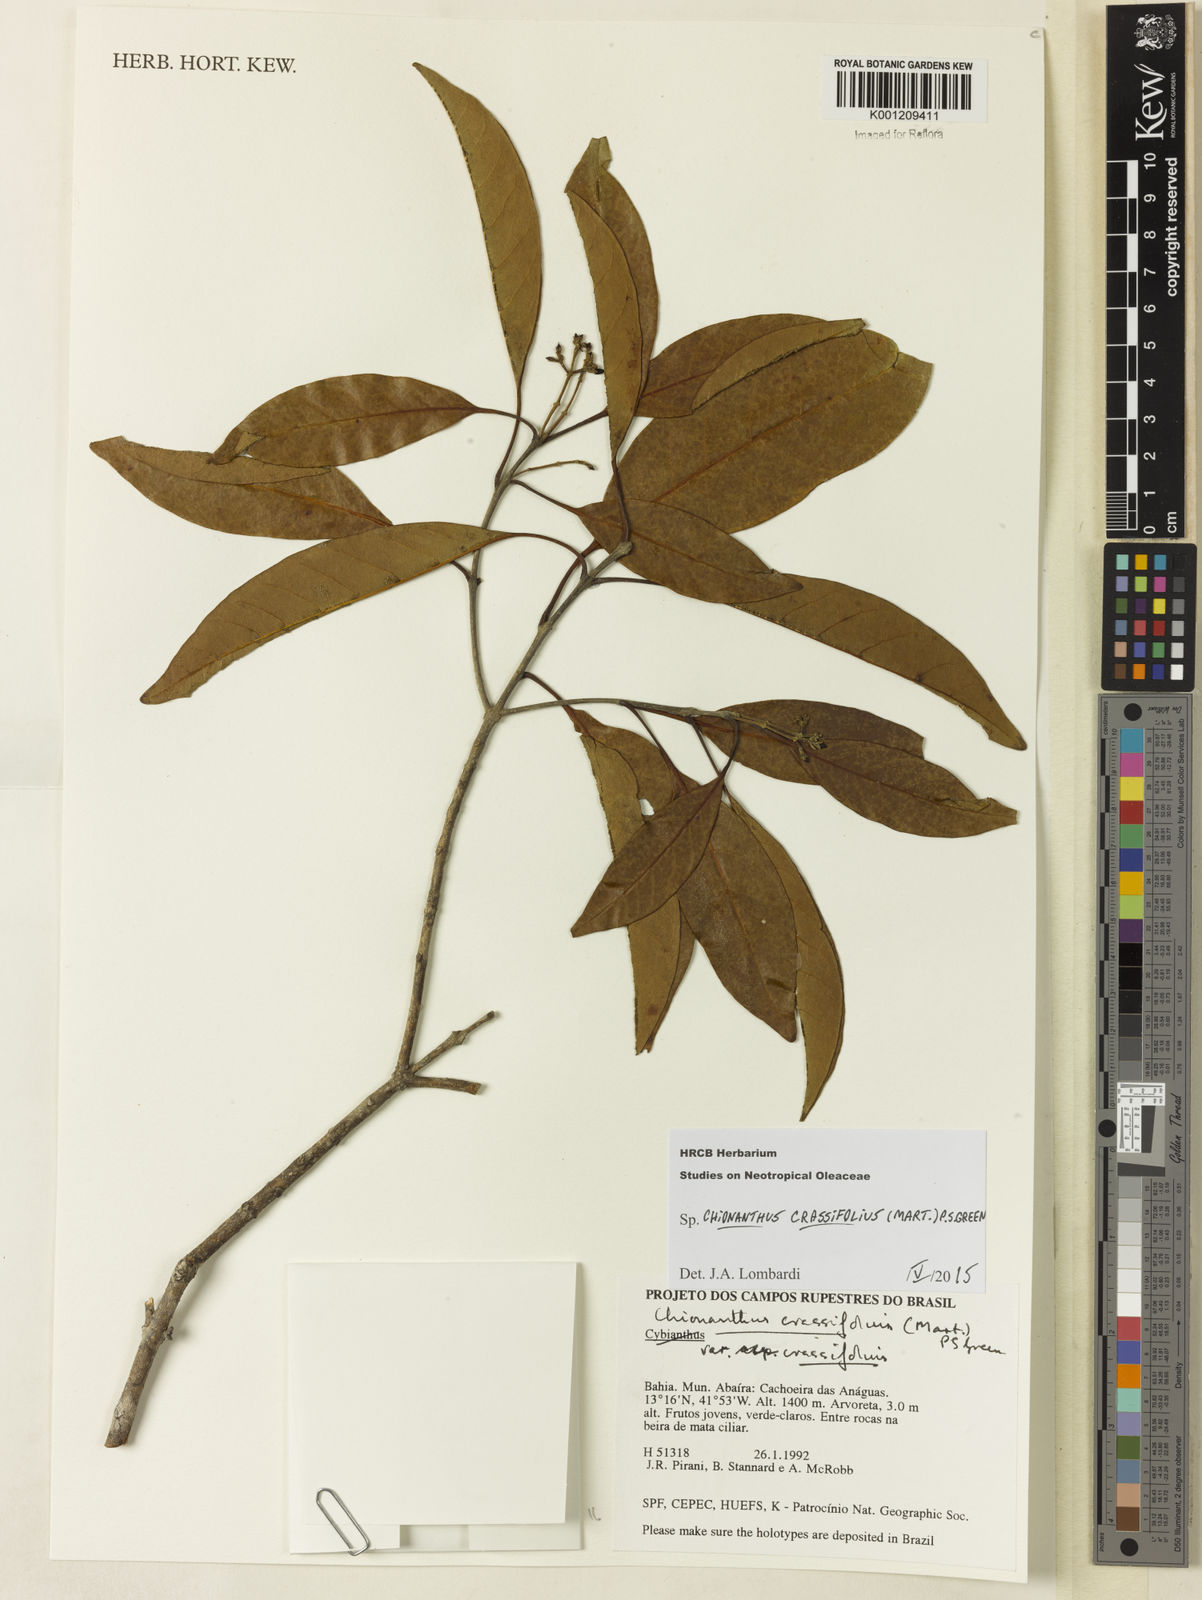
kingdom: Plantae
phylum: Tracheophyta
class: Magnoliopsida
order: Lamiales
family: Oleaceae
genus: Chionanthus
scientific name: Chionanthus crassifolius
